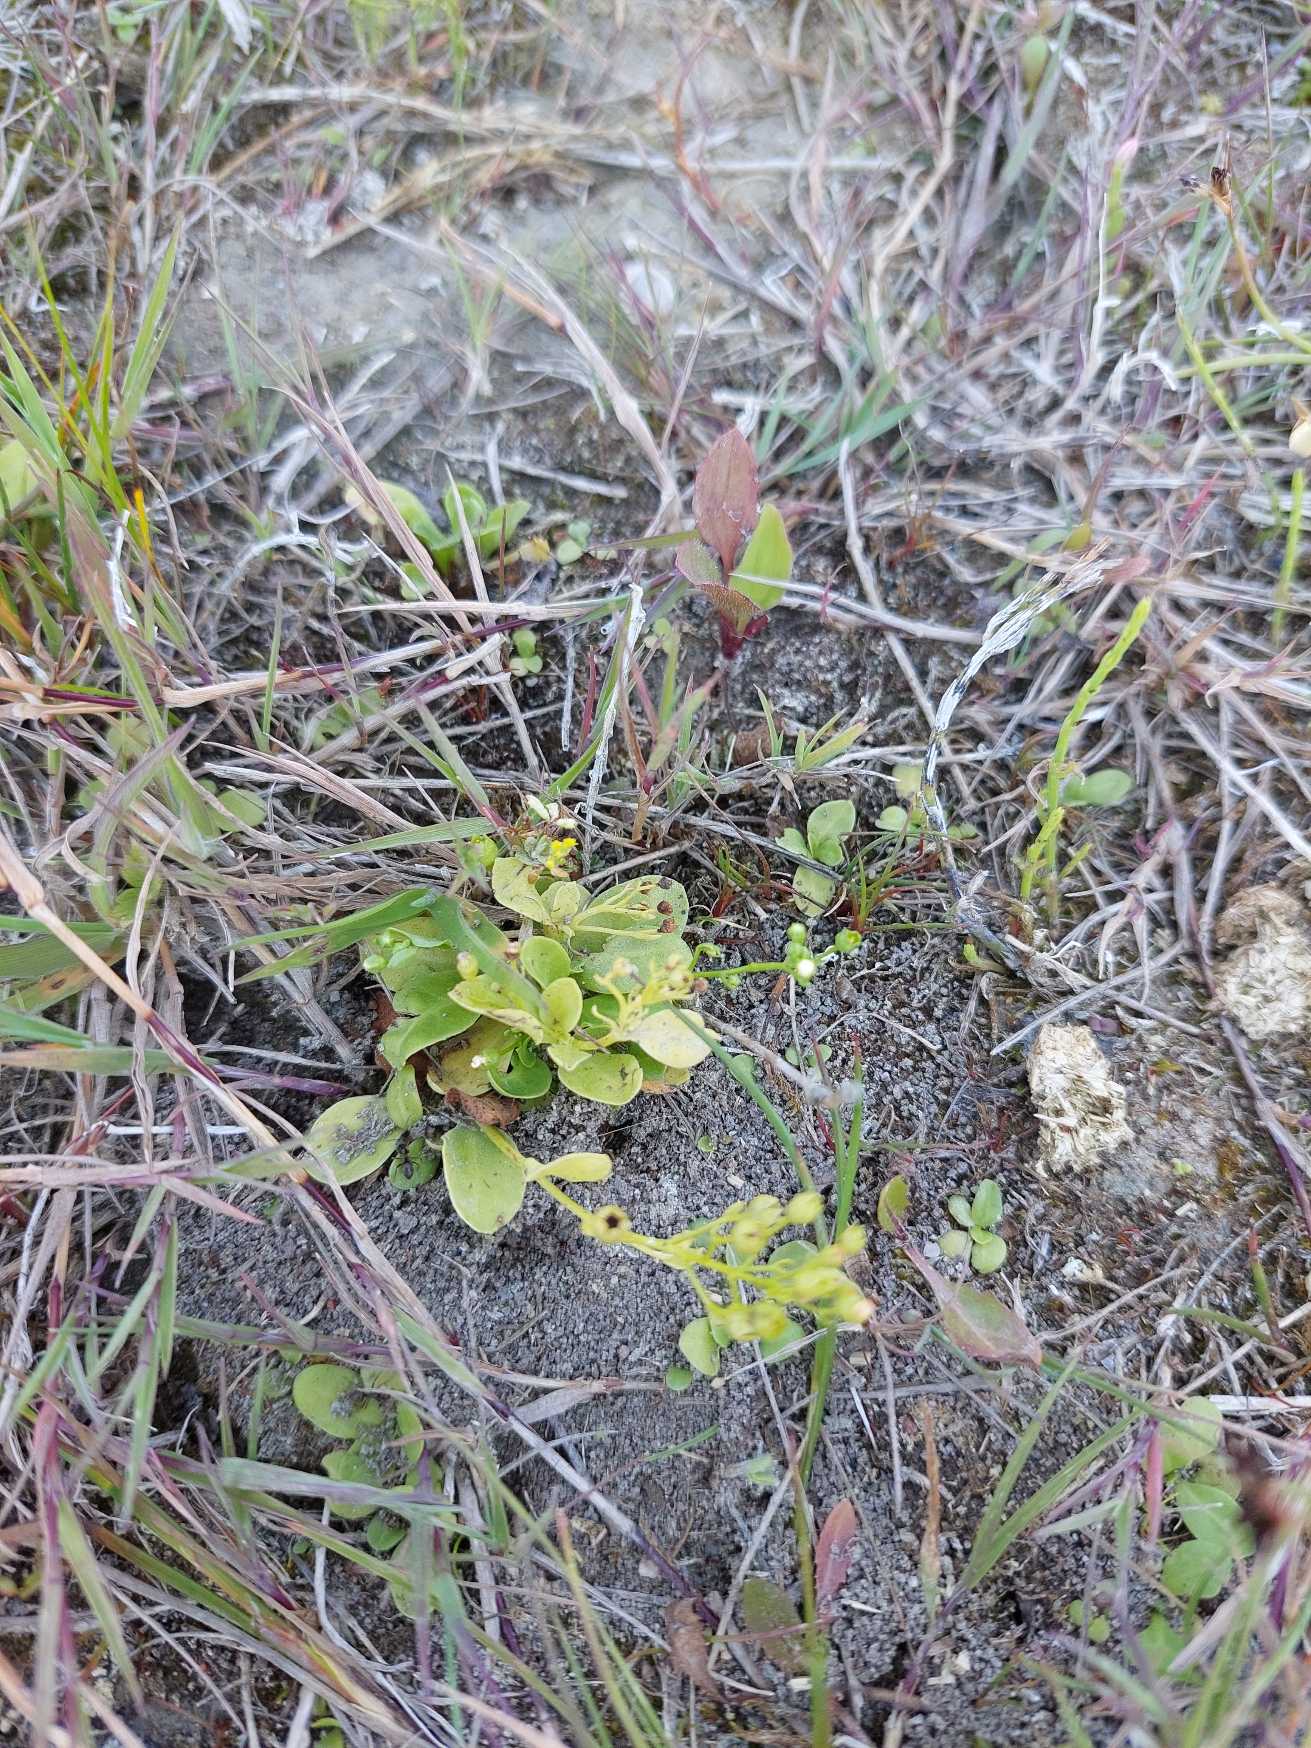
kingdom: Plantae
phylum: Tracheophyta
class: Magnoliopsida
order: Ericales
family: Primulaceae
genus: Samolus
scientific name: Samolus valerandi
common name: Samel
